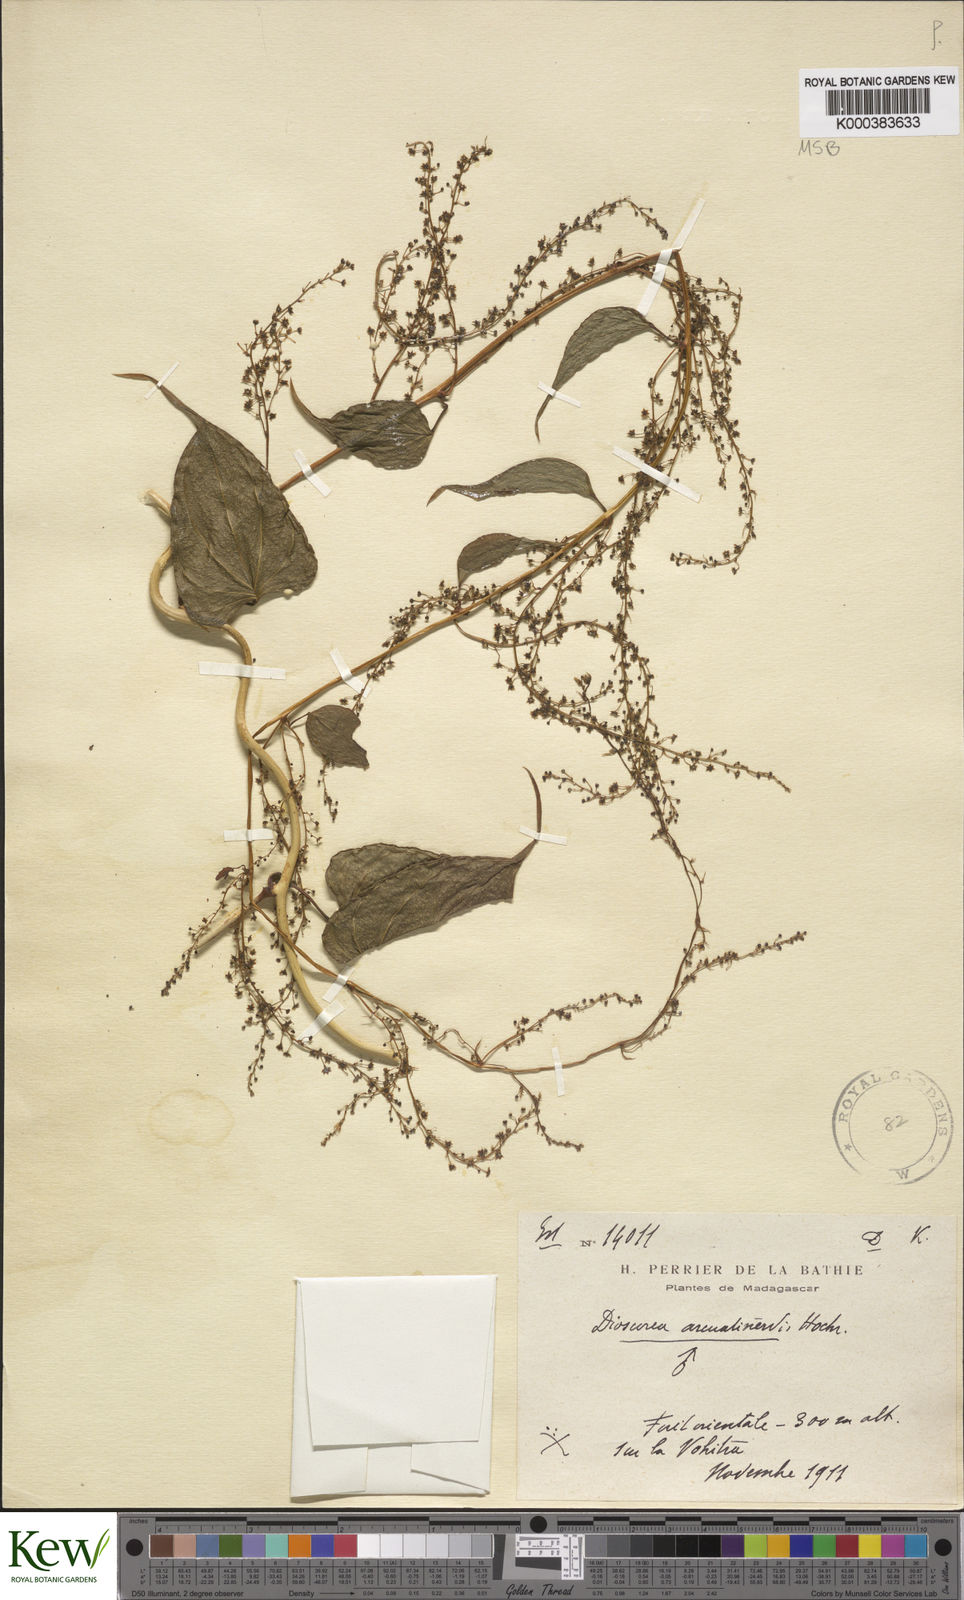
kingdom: Plantae
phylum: Tracheophyta
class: Liliopsida
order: Dioscoreales
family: Dioscoreaceae
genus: Dioscorea
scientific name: Dioscorea arcuatinervis
